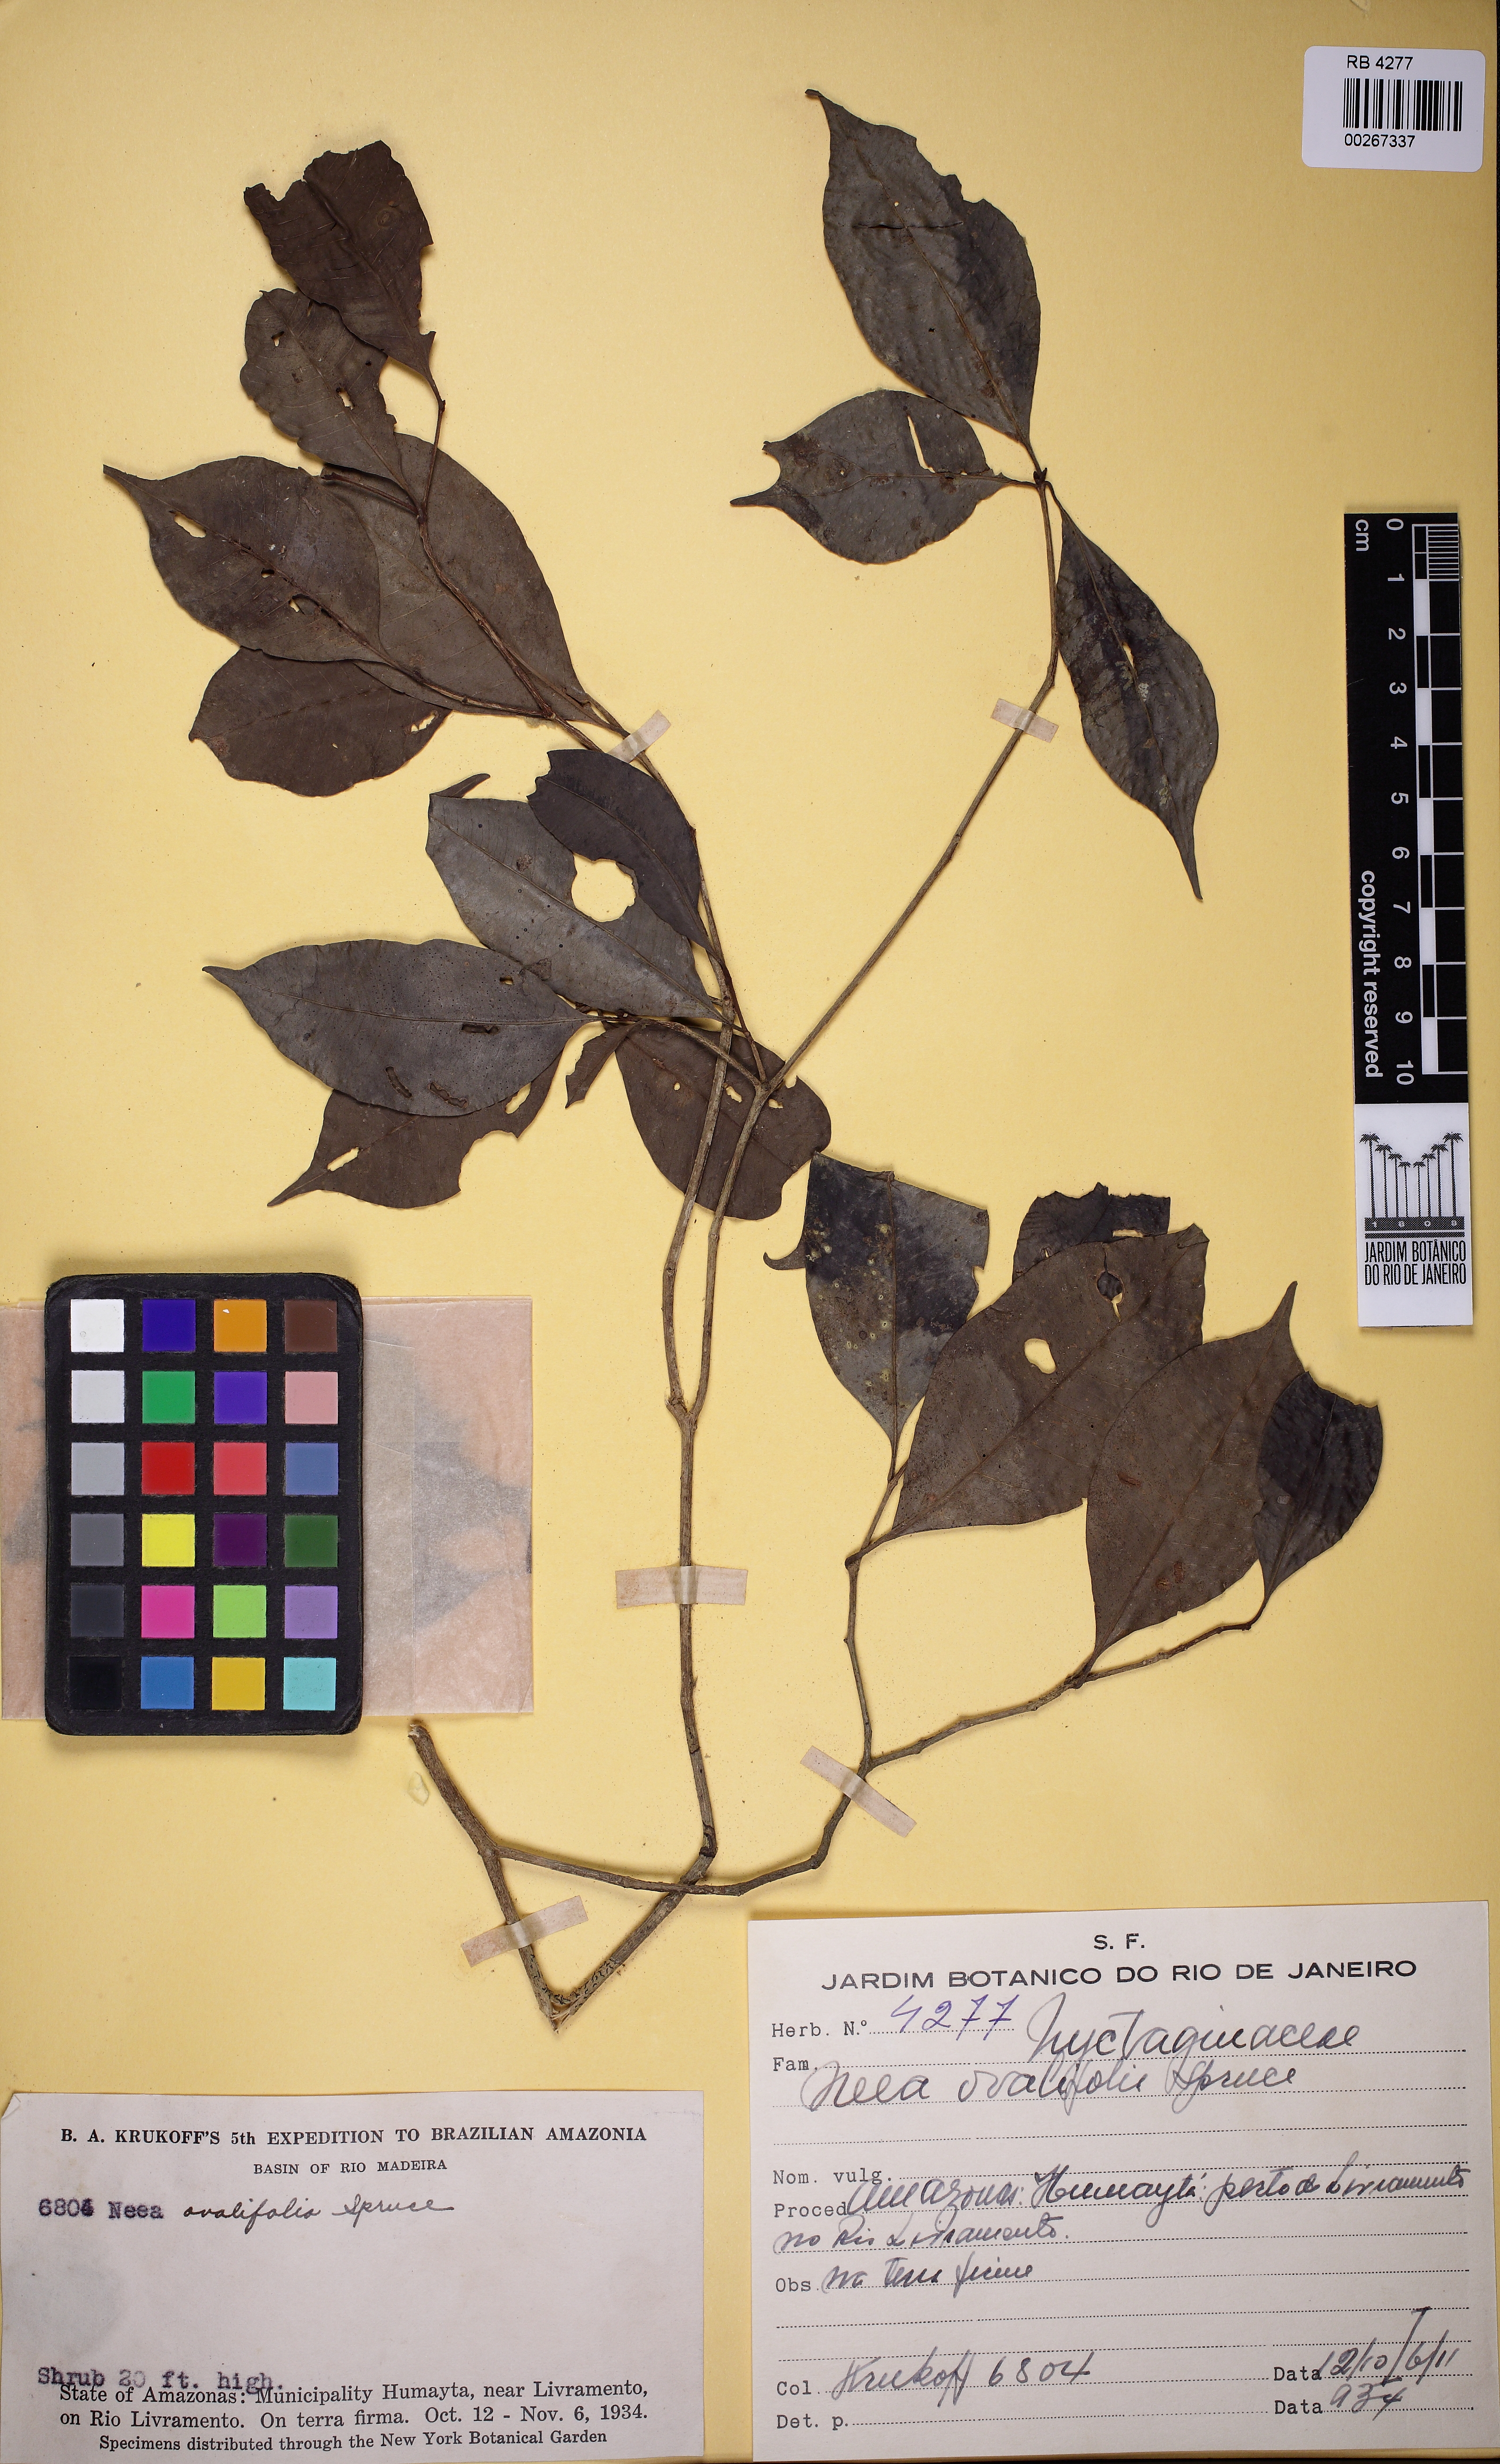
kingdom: Plantae
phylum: Tracheophyta
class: Magnoliopsida
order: Caryophyllales
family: Nyctaginaceae
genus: Neea
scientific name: Neea ovalifolia
